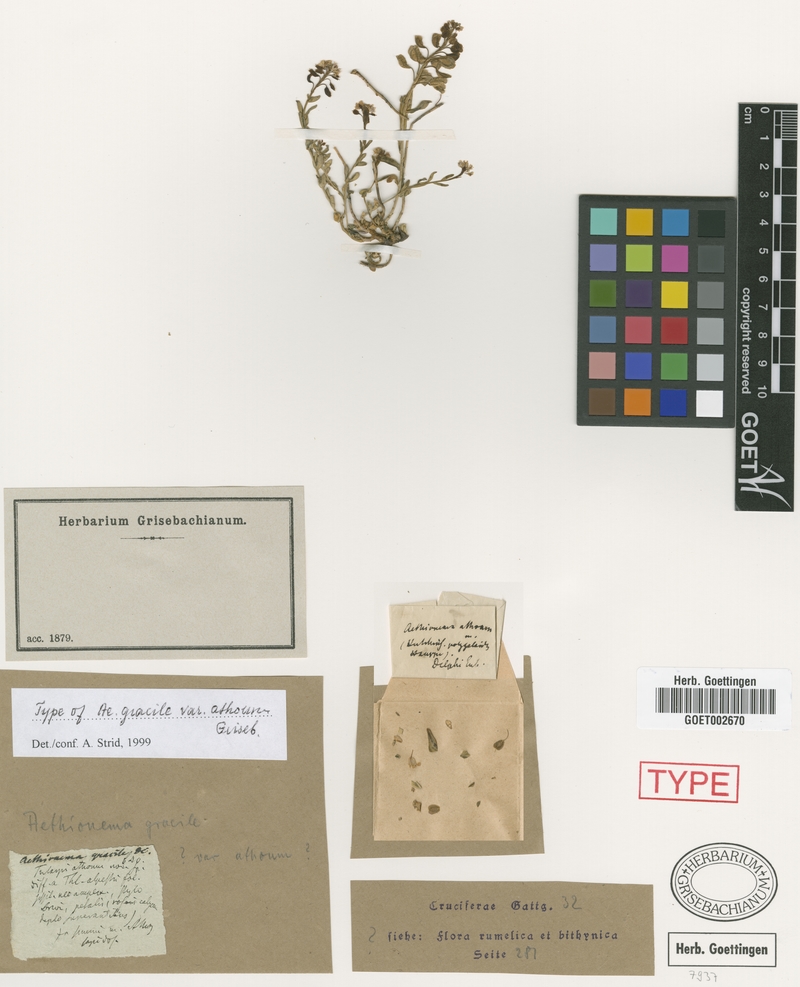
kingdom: Plantae
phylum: Tracheophyta
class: Magnoliopsida
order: Brassicales
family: Brassicaceae
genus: Aethionema
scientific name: Aethionema saxatile
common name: Burnt candytuft
